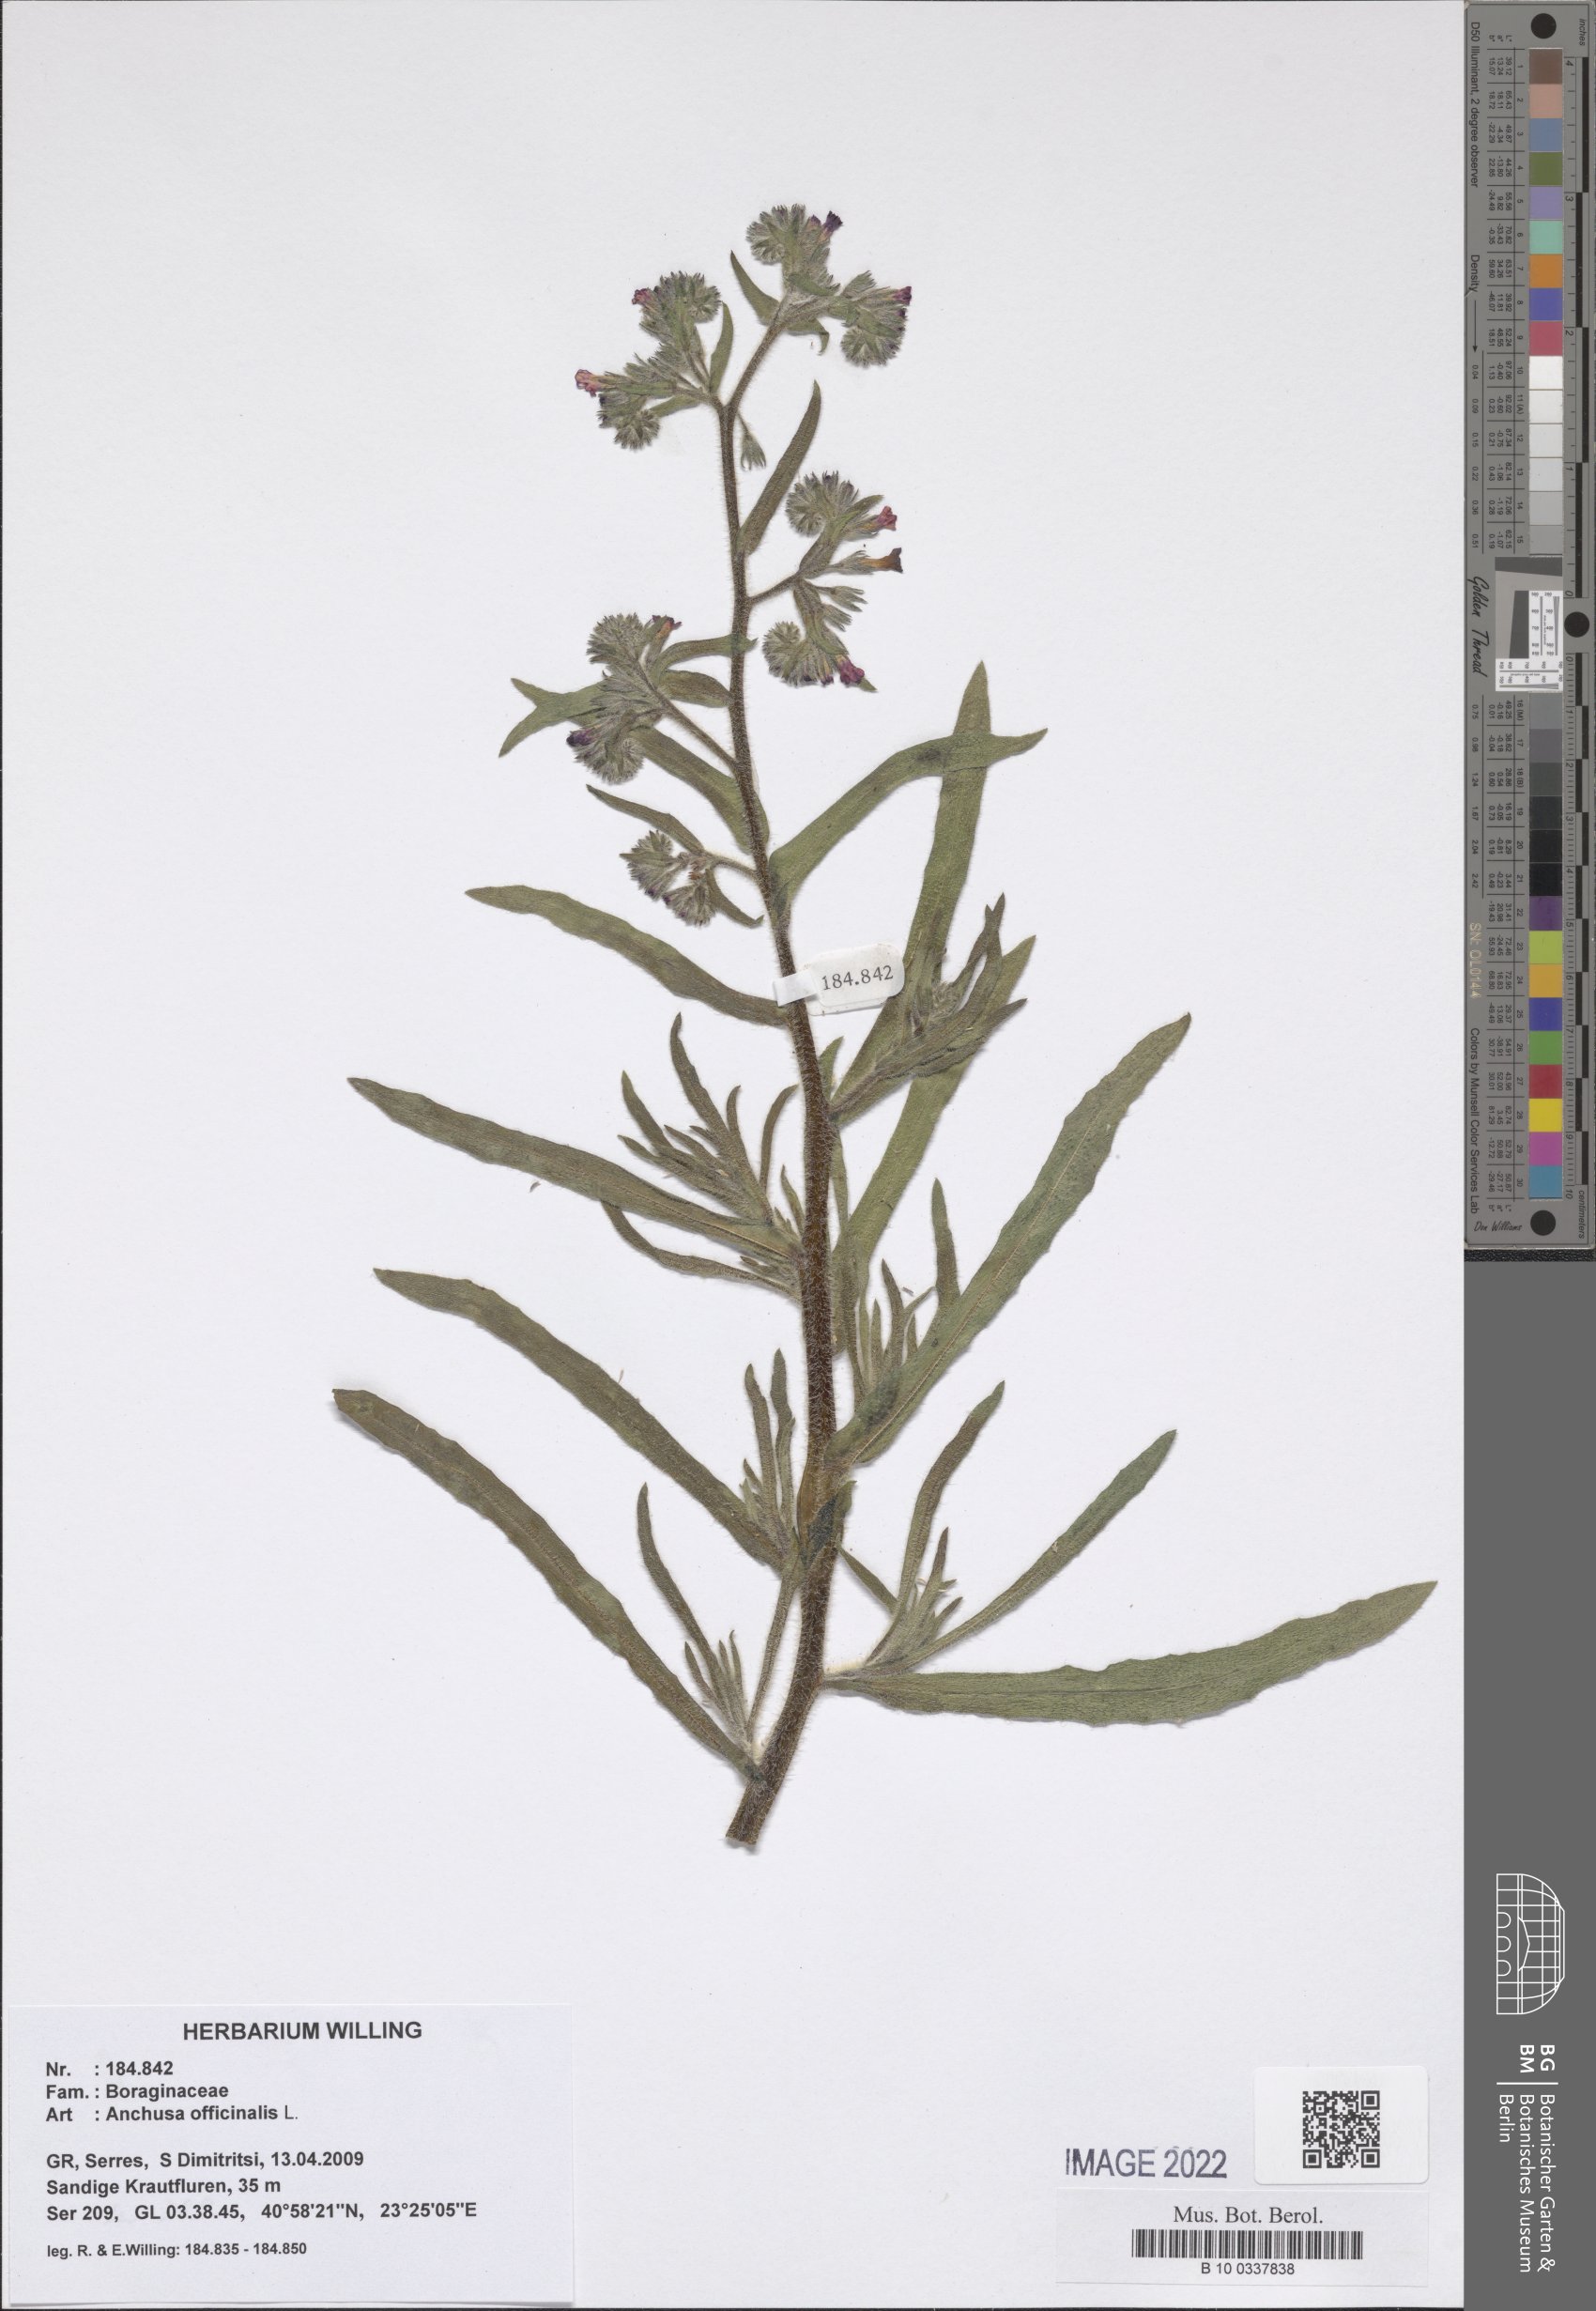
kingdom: Plantae
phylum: Tracheophyta
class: Magnoliopsida
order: Boraginales
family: Boraginaceae
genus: Anchusa
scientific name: Anchusa officinalis
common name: Alkanet
